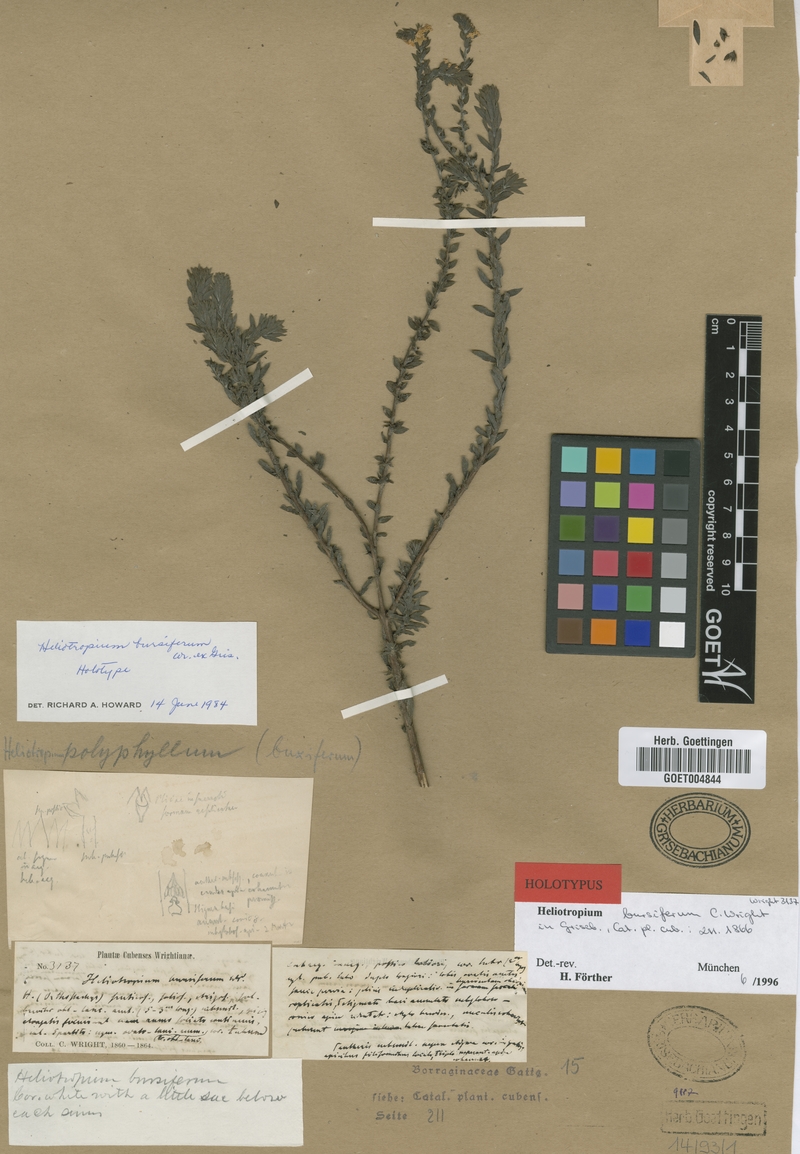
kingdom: Plantae
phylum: Tracheophyta
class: Magnoliopsida
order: Boraginales
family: Heliotropiaceae
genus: Euploca
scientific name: Euploca bursifera
